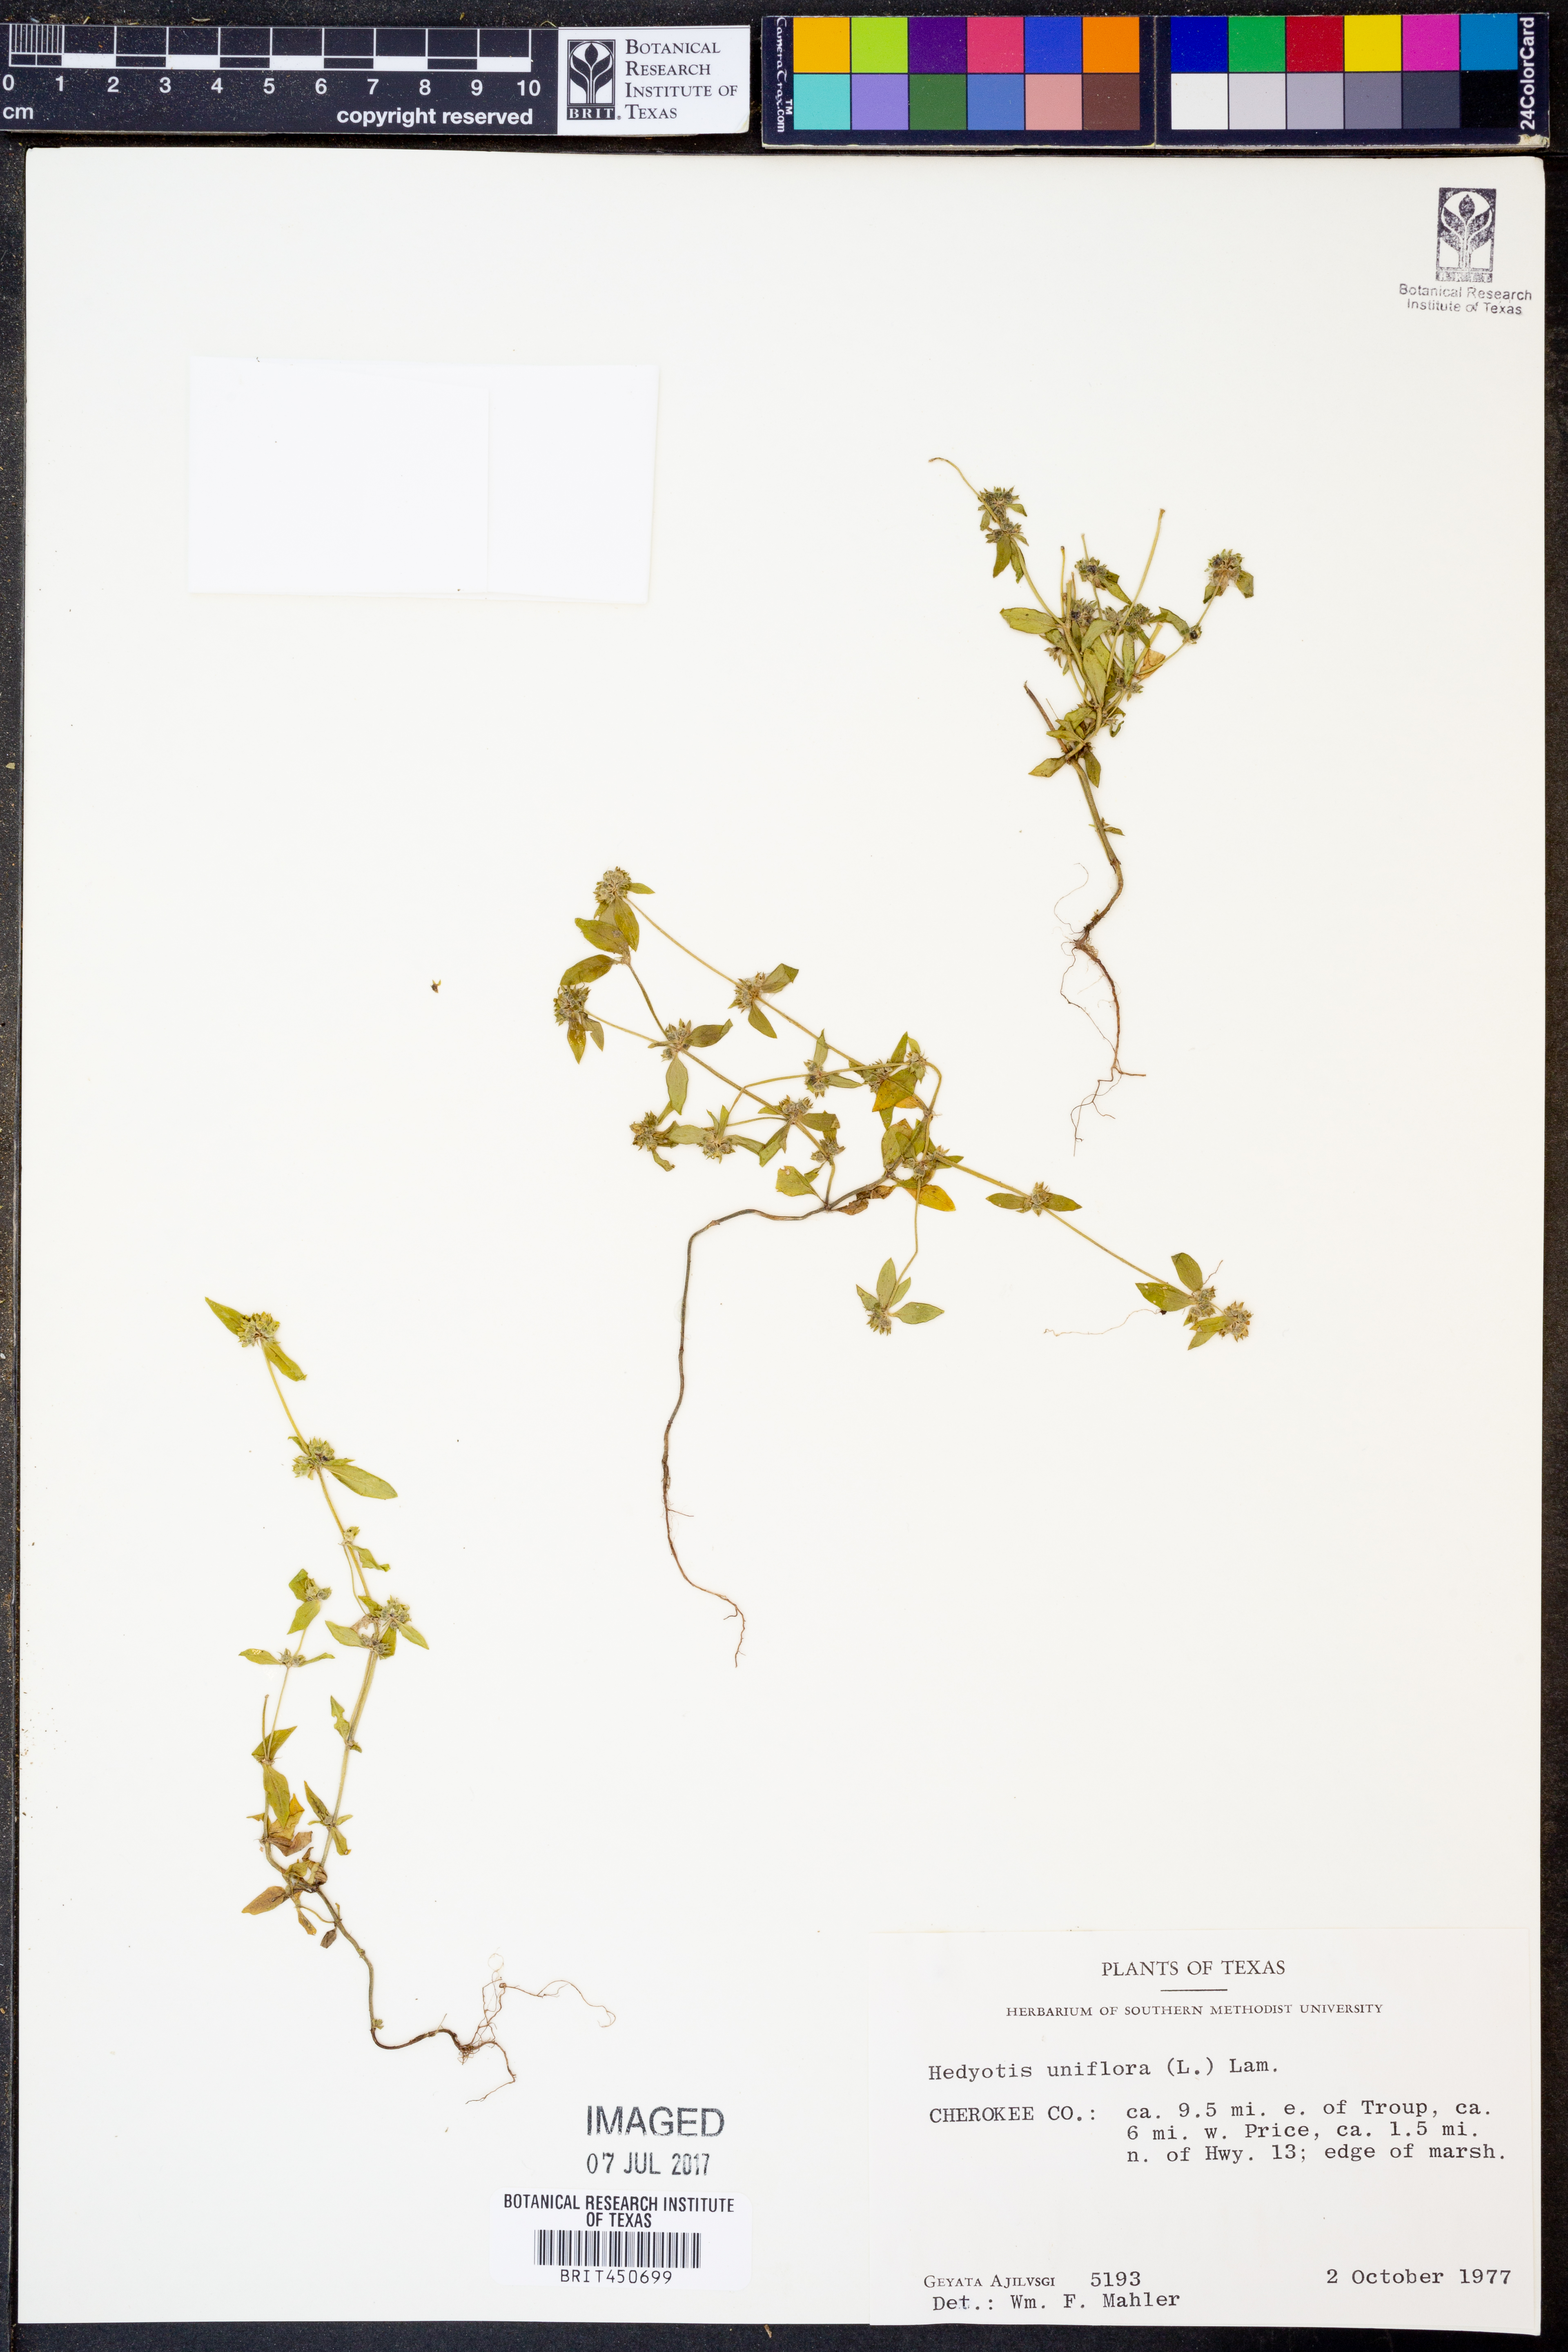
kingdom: Plantae
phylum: Tracheophyta
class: Magnoliopsida
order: Gentianales
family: Rubiaceae
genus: Edrastima
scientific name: Edrastima uniflora
